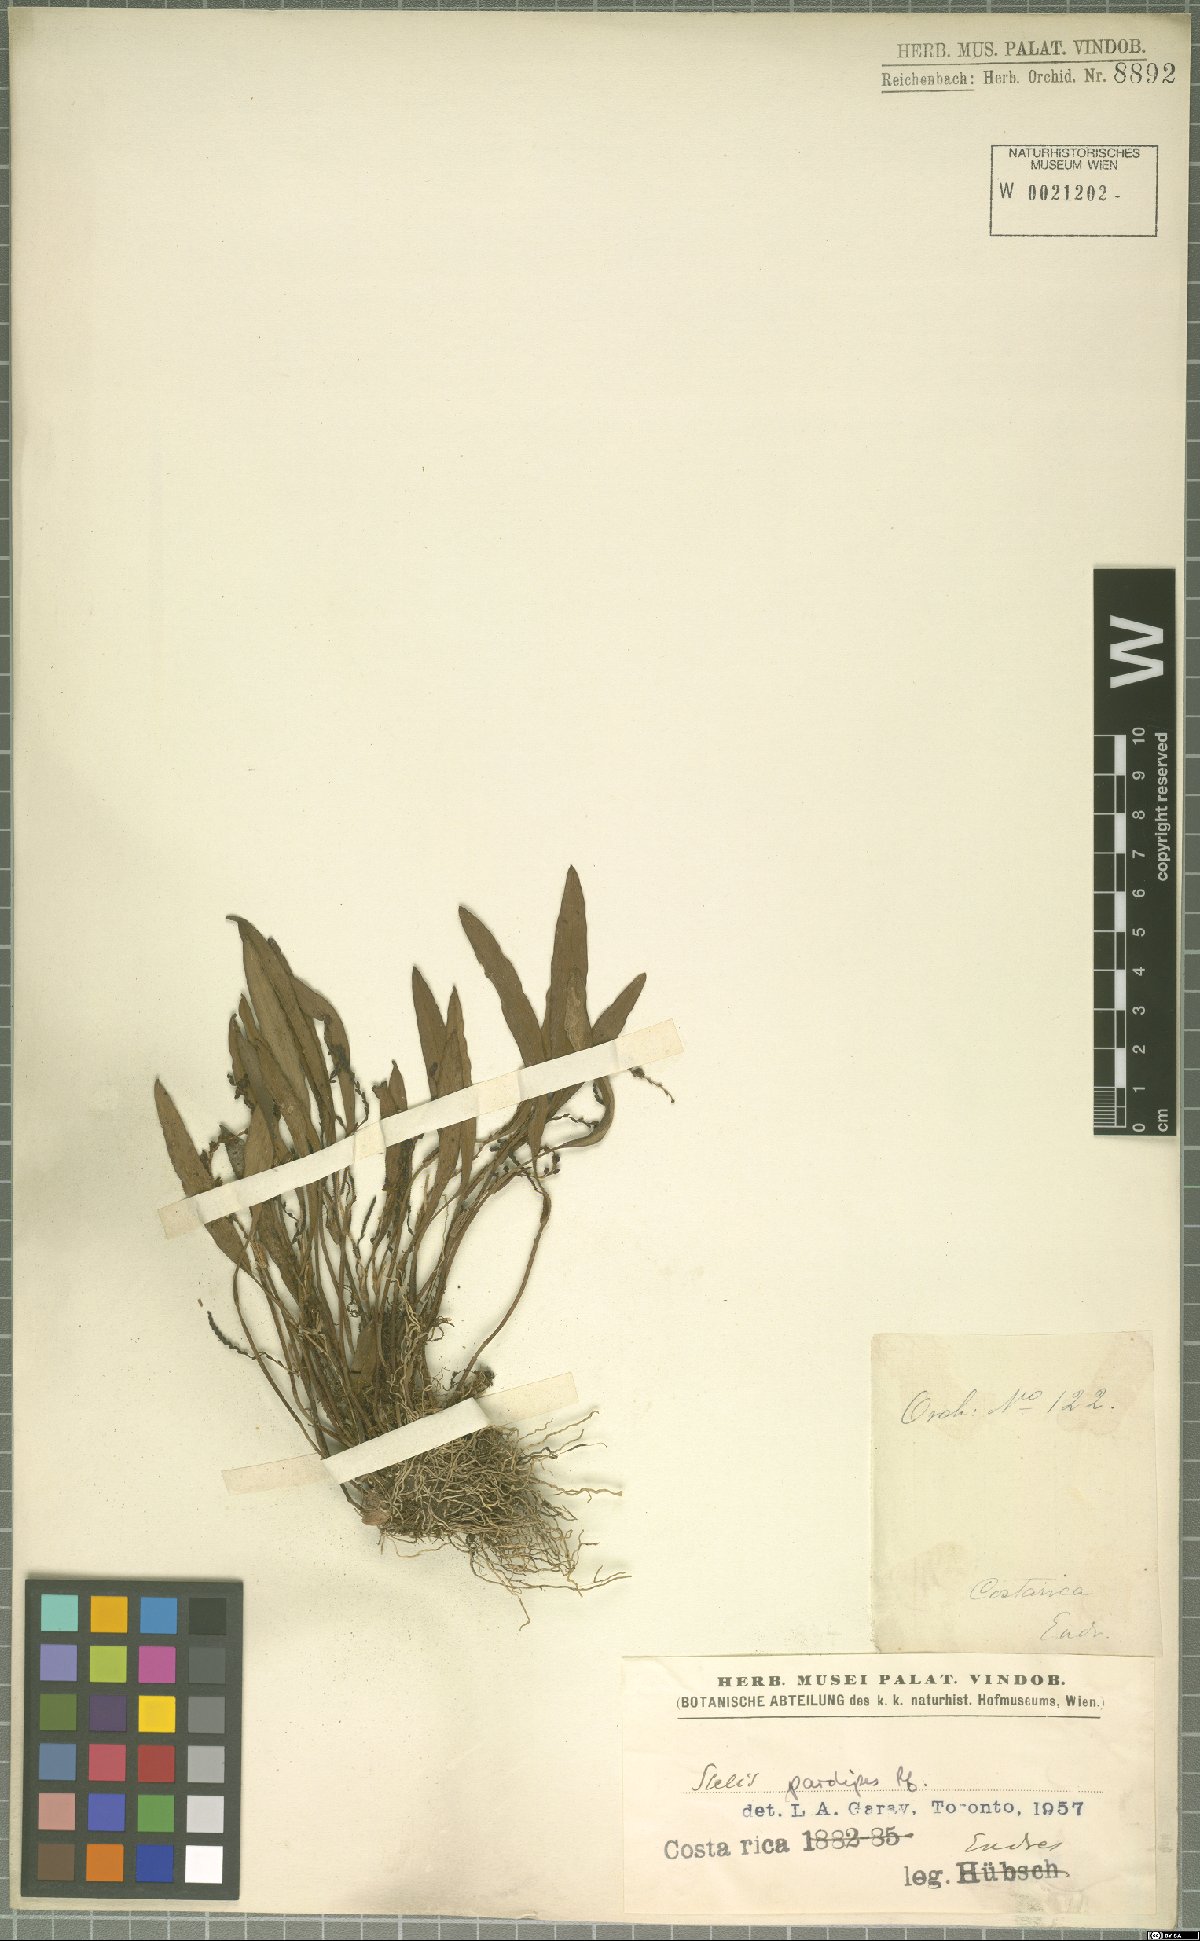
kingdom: Plantae
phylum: Tracheophyta
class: Liliopsida
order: Asparagales
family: Orchidaceae
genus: Stelis
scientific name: Stelis pardipes
